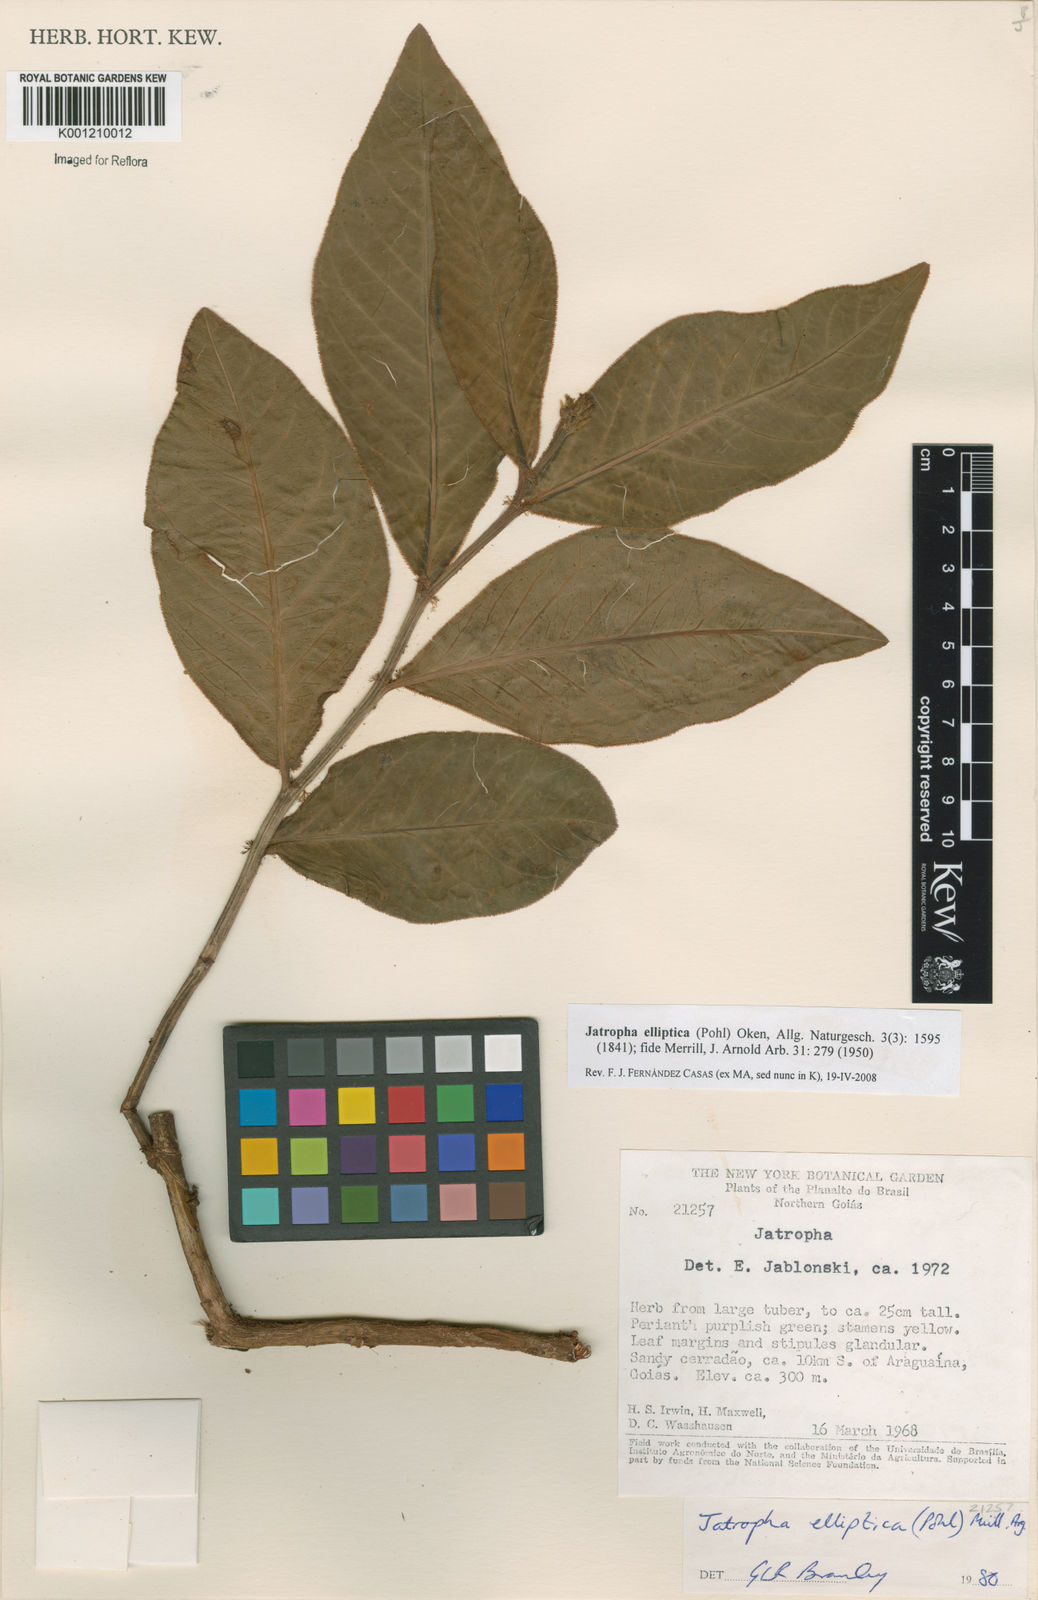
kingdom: Plantae
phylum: Tracheophyta
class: Magnoliopsida
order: Malpighiales
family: Euphorbiaceae
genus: Jatropha
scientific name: Jatropha elliptica
